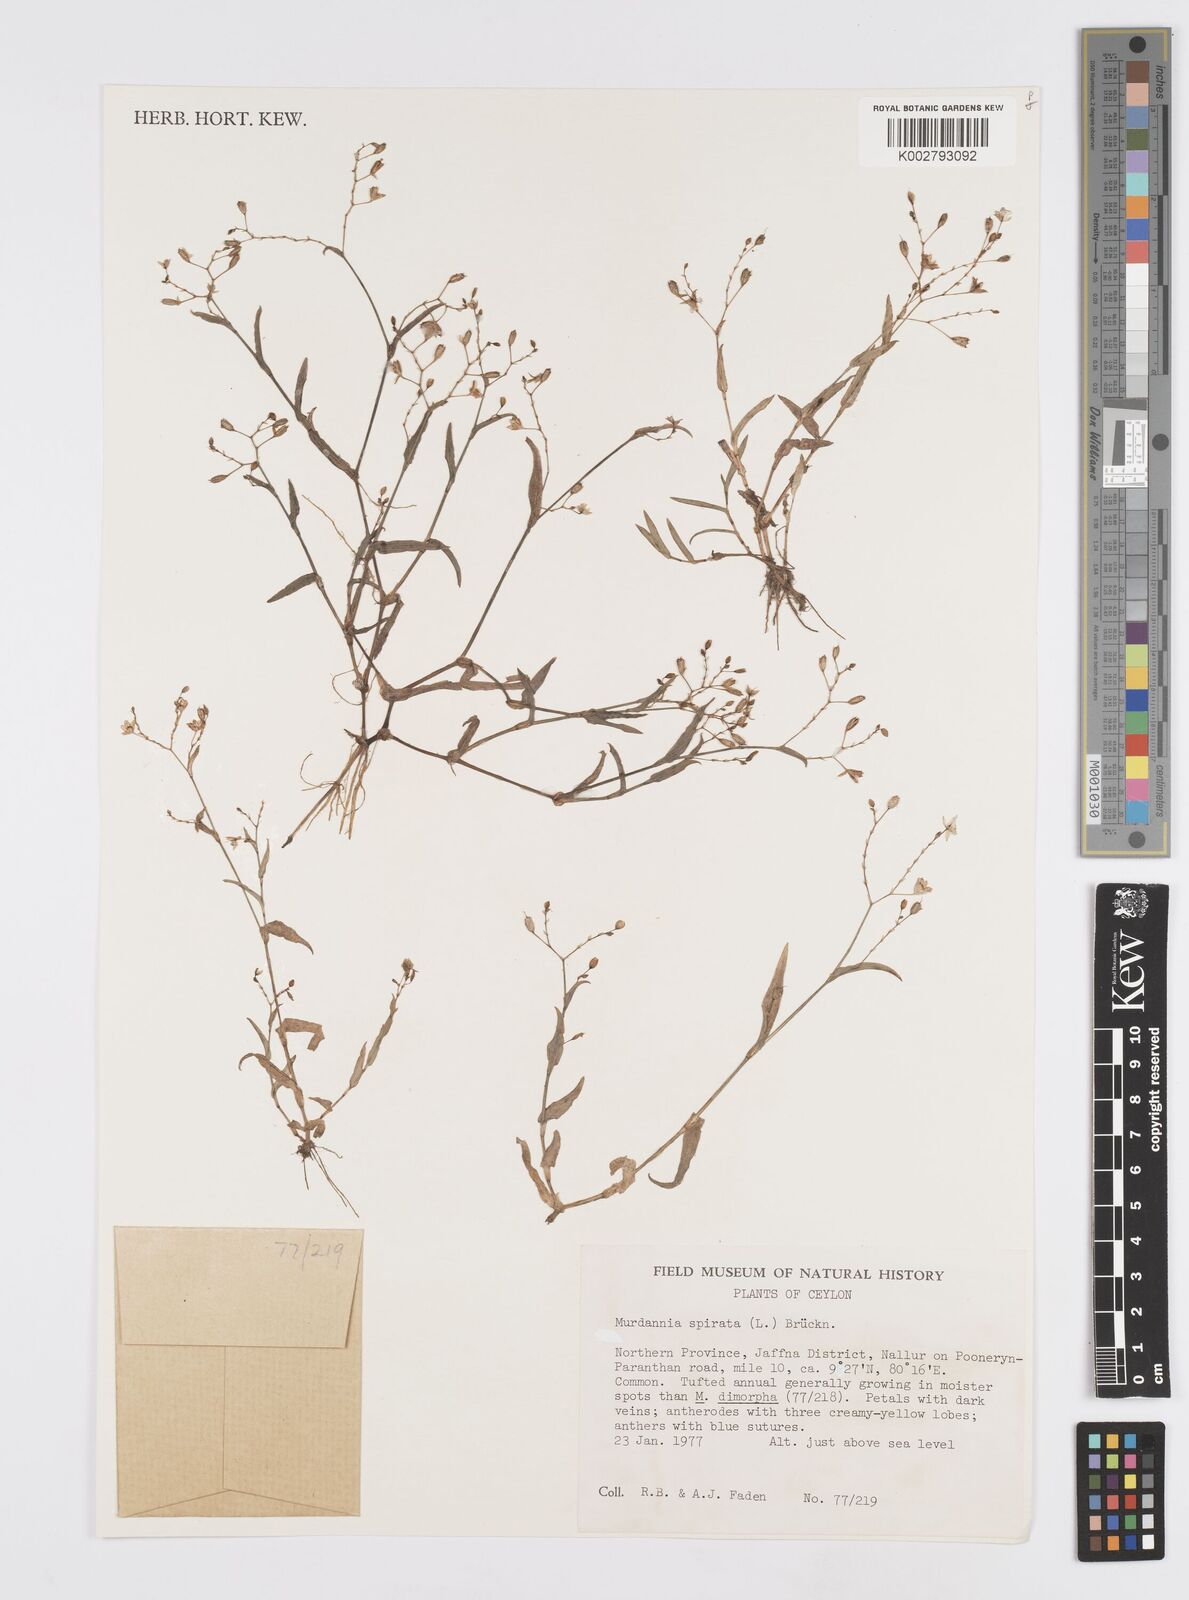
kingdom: Plantae
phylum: Tracheophyta
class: Liliopsida
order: Commelinales
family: Commelinaceae
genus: Murdannia
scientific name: Murdannia spirata
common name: Asiatic dewflower
